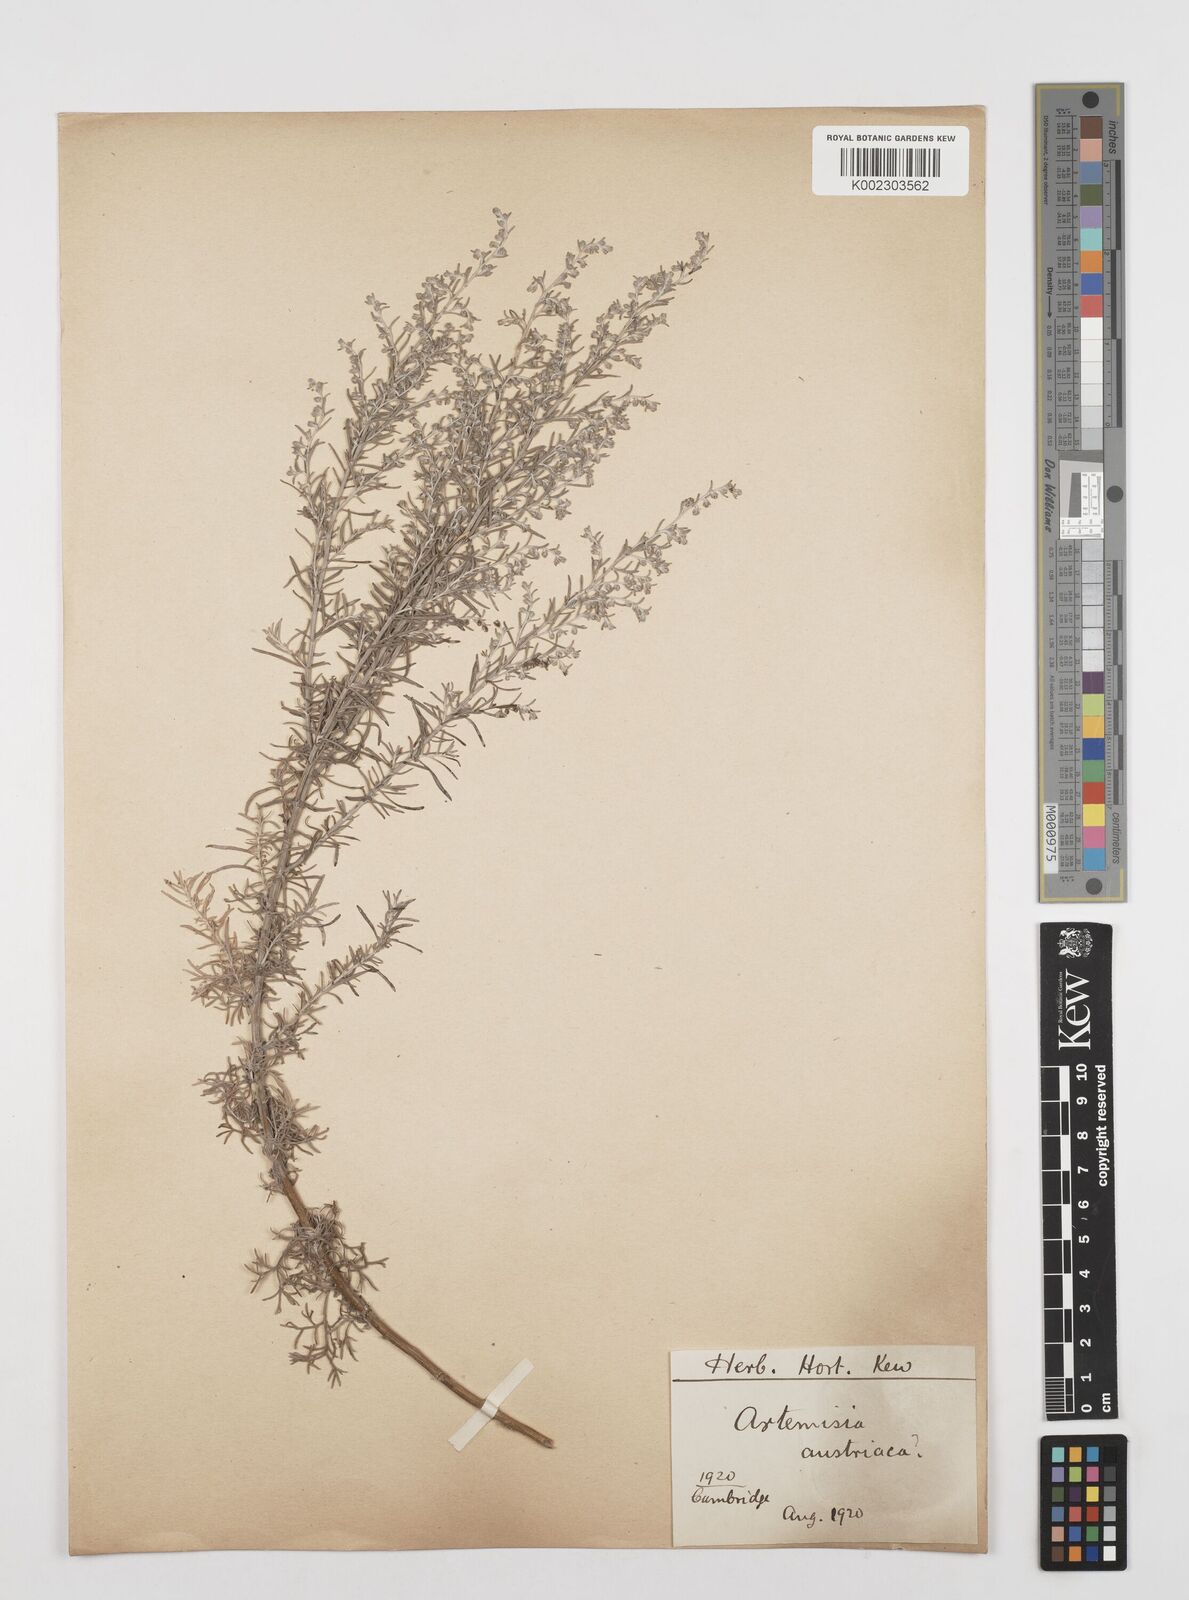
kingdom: Plantae
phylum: Tracheophyta
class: Magnoliopsida
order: Asterales
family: Asteraceae
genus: Artemisia
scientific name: Artemisia austriaca
